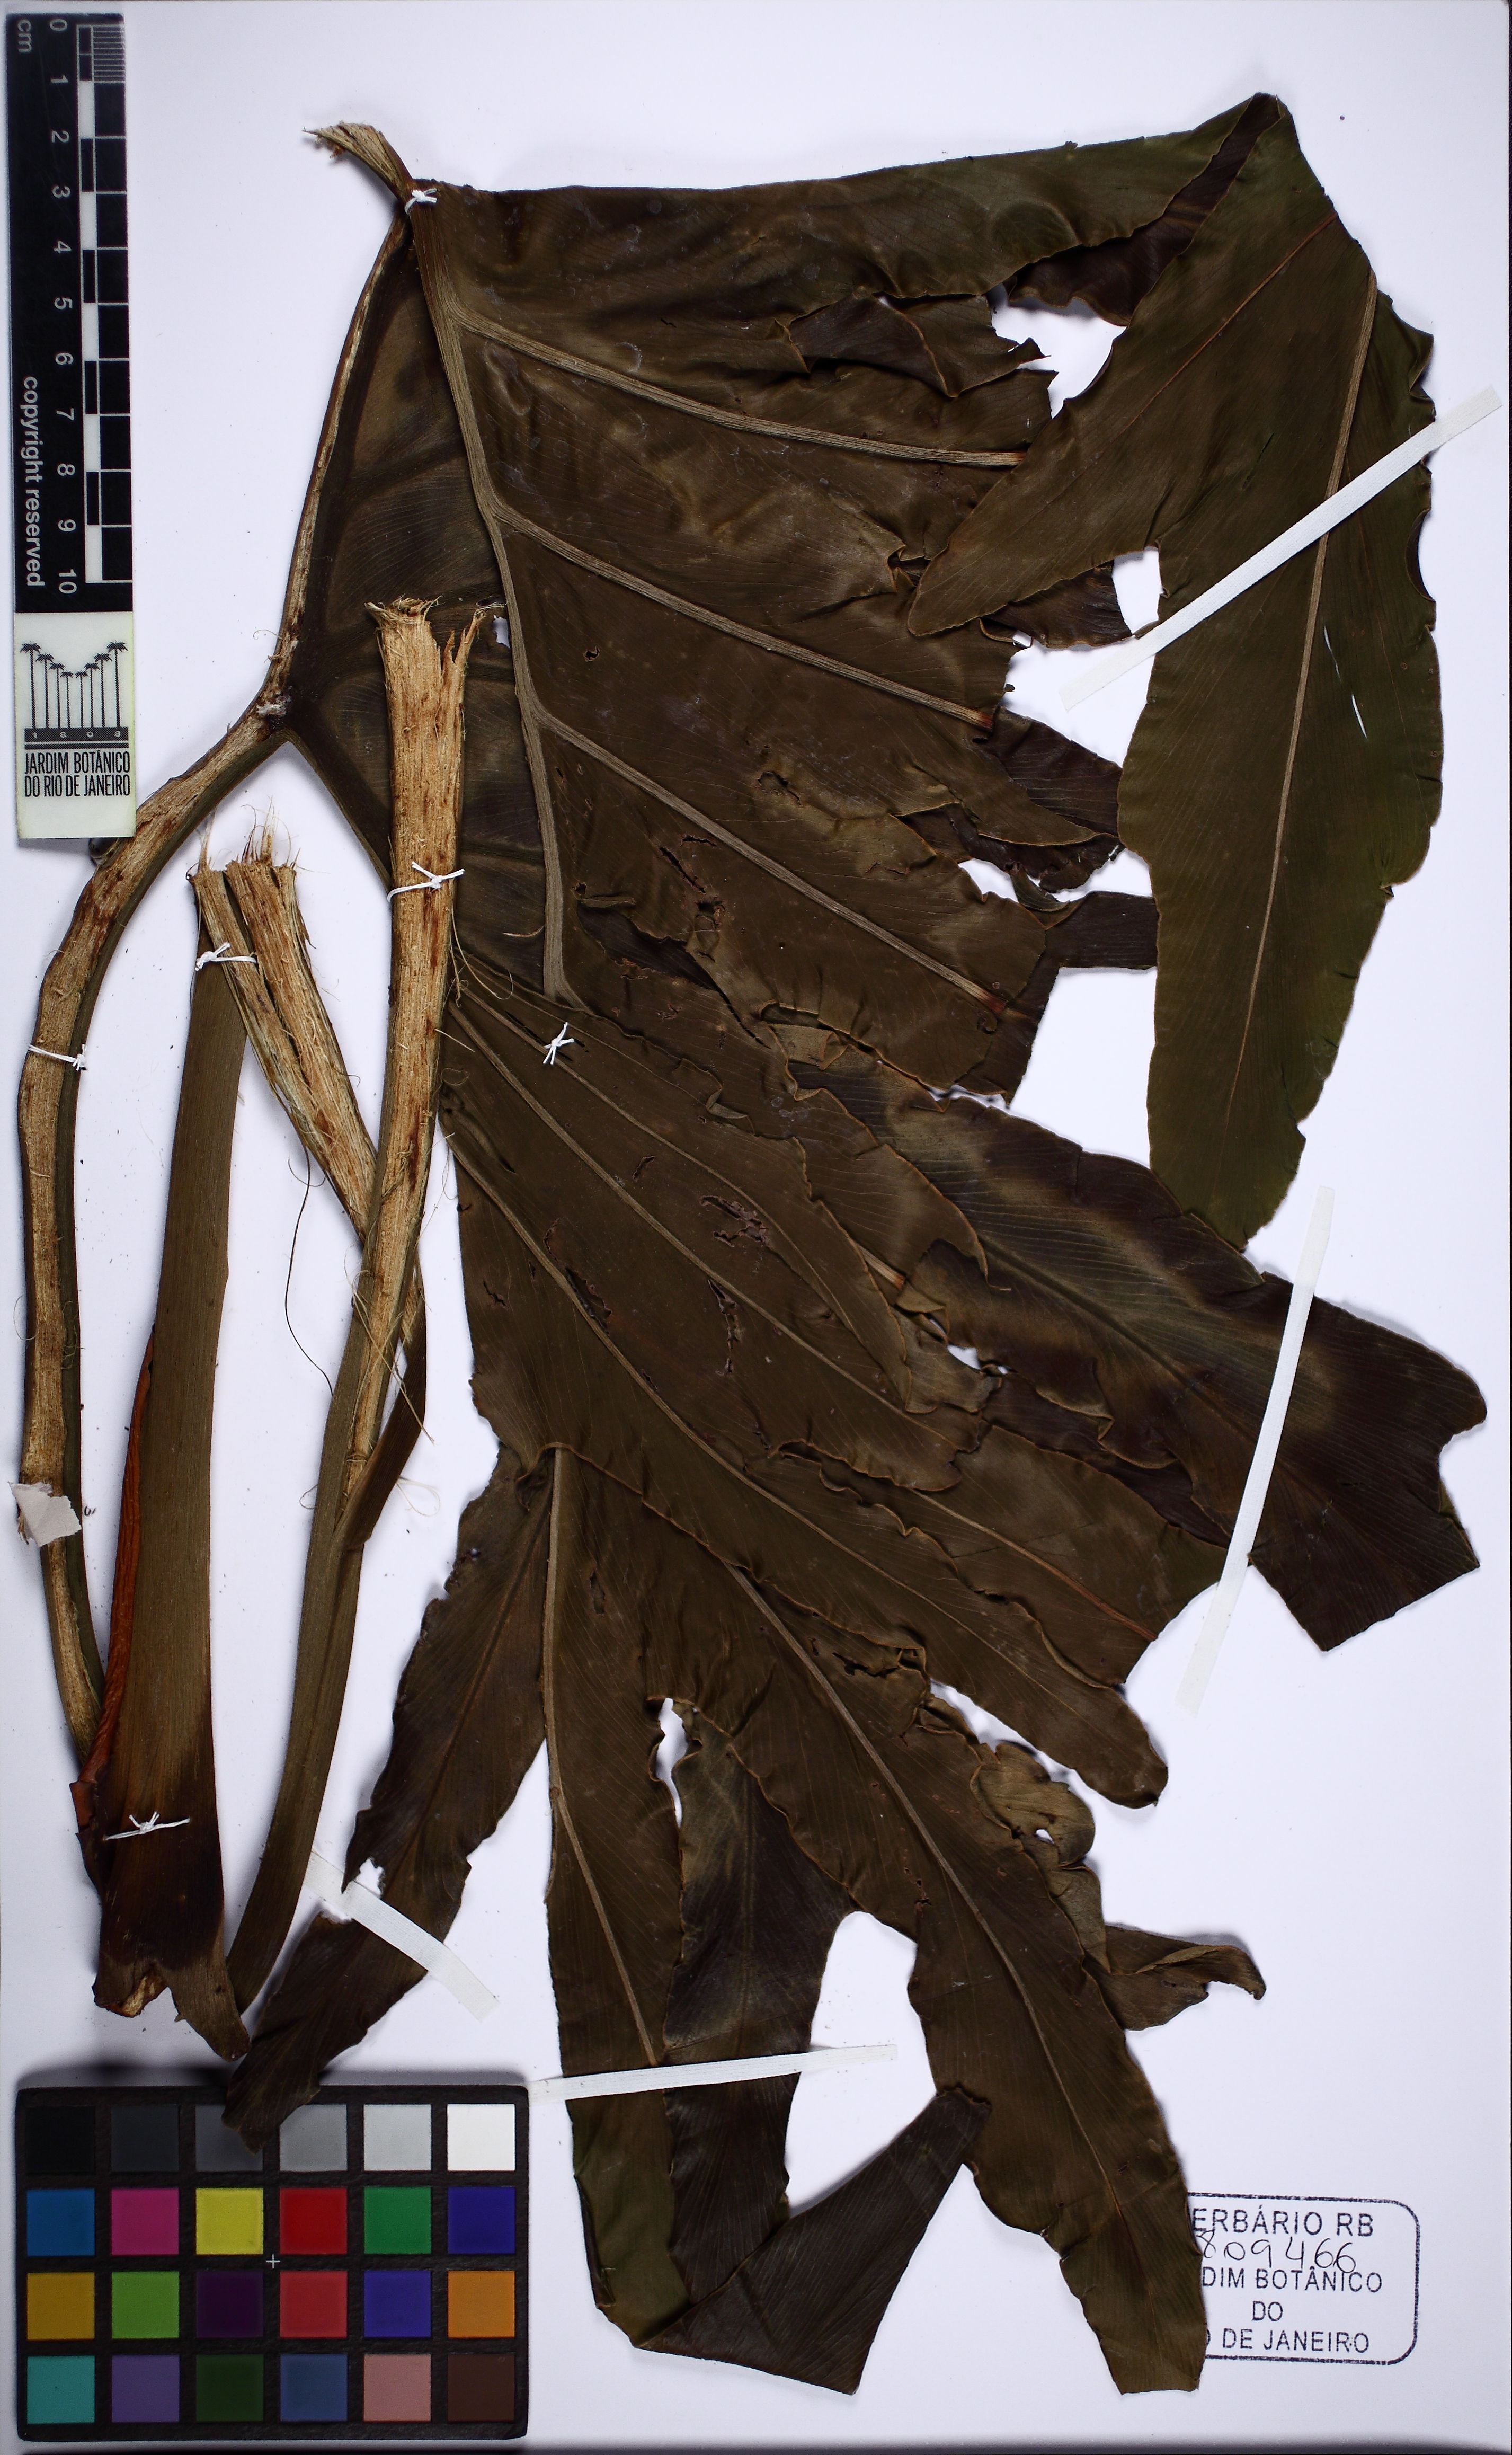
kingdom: Plantae
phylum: Tracheophyta
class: Liliopsida
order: Alismatales
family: Araceae
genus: Thaumatophyllum
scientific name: Thaumatophyllum bipinnatifidum
